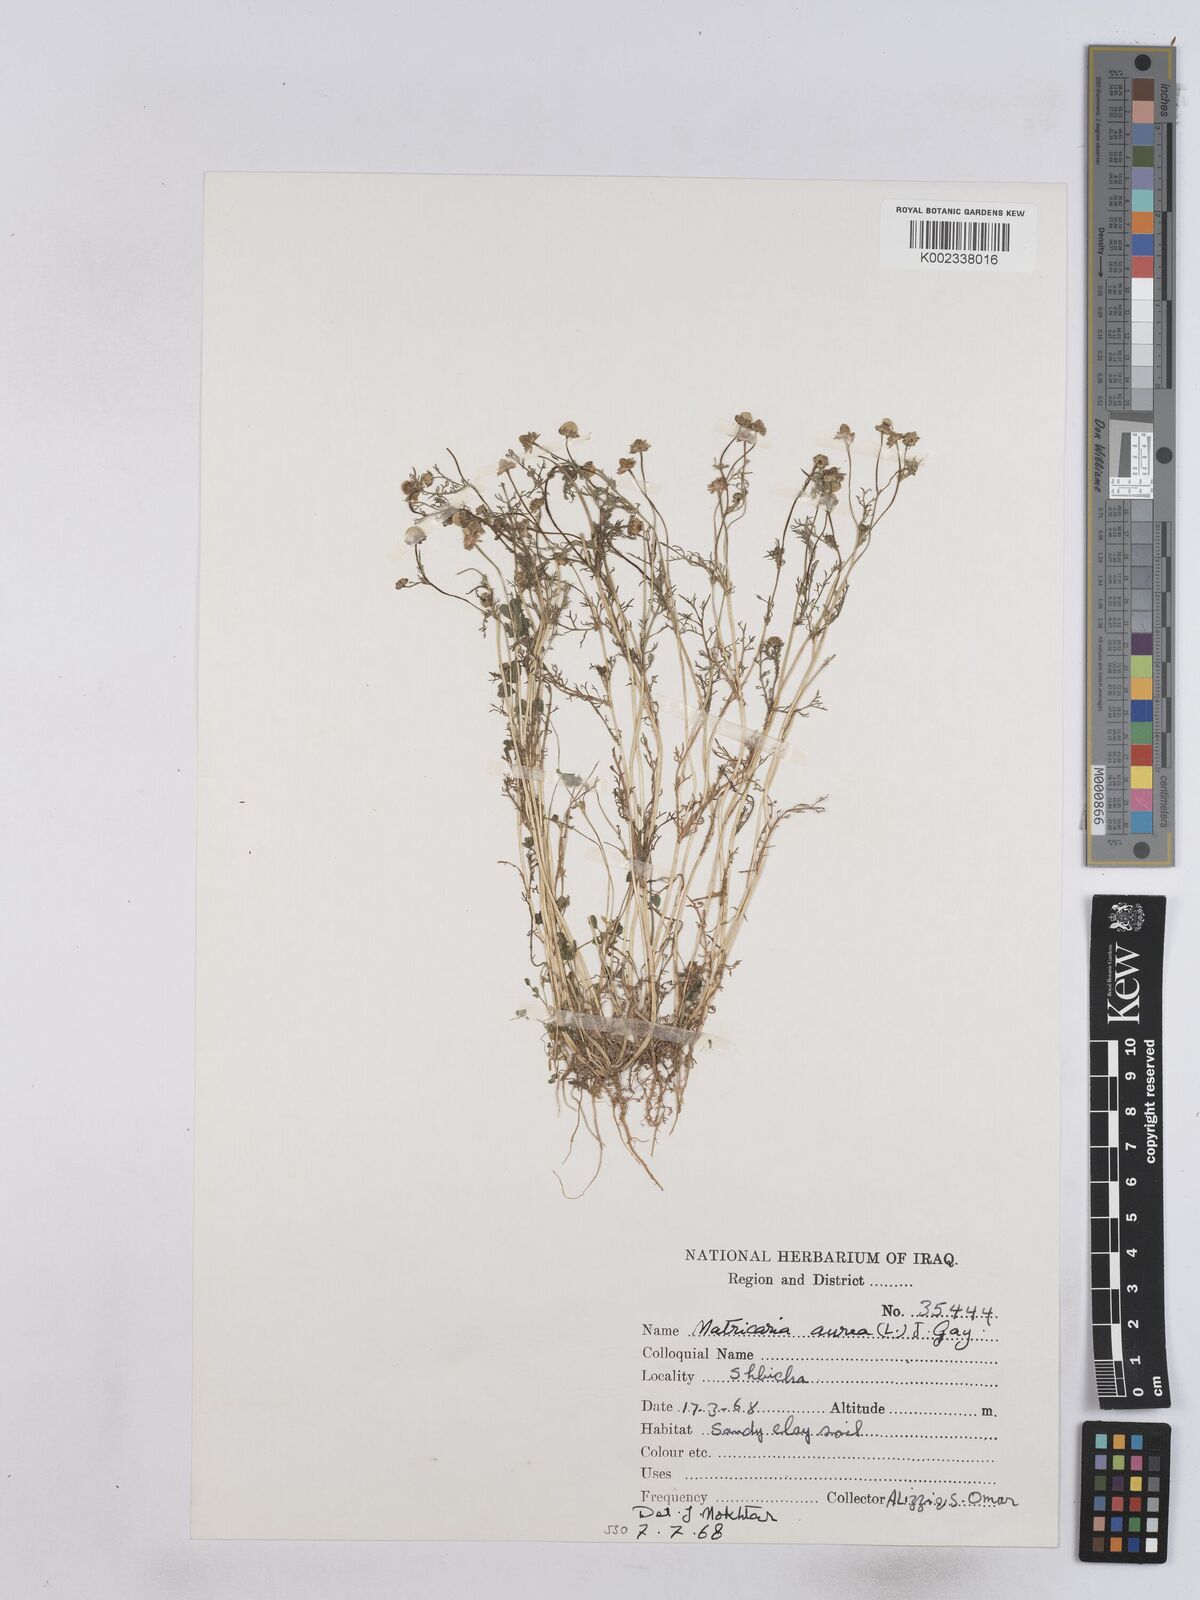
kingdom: Plantae
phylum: Tracheophyta
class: Magnoliopsida
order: Asterales
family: Asteraceae
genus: Matricaria
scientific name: Matricaria aurea
